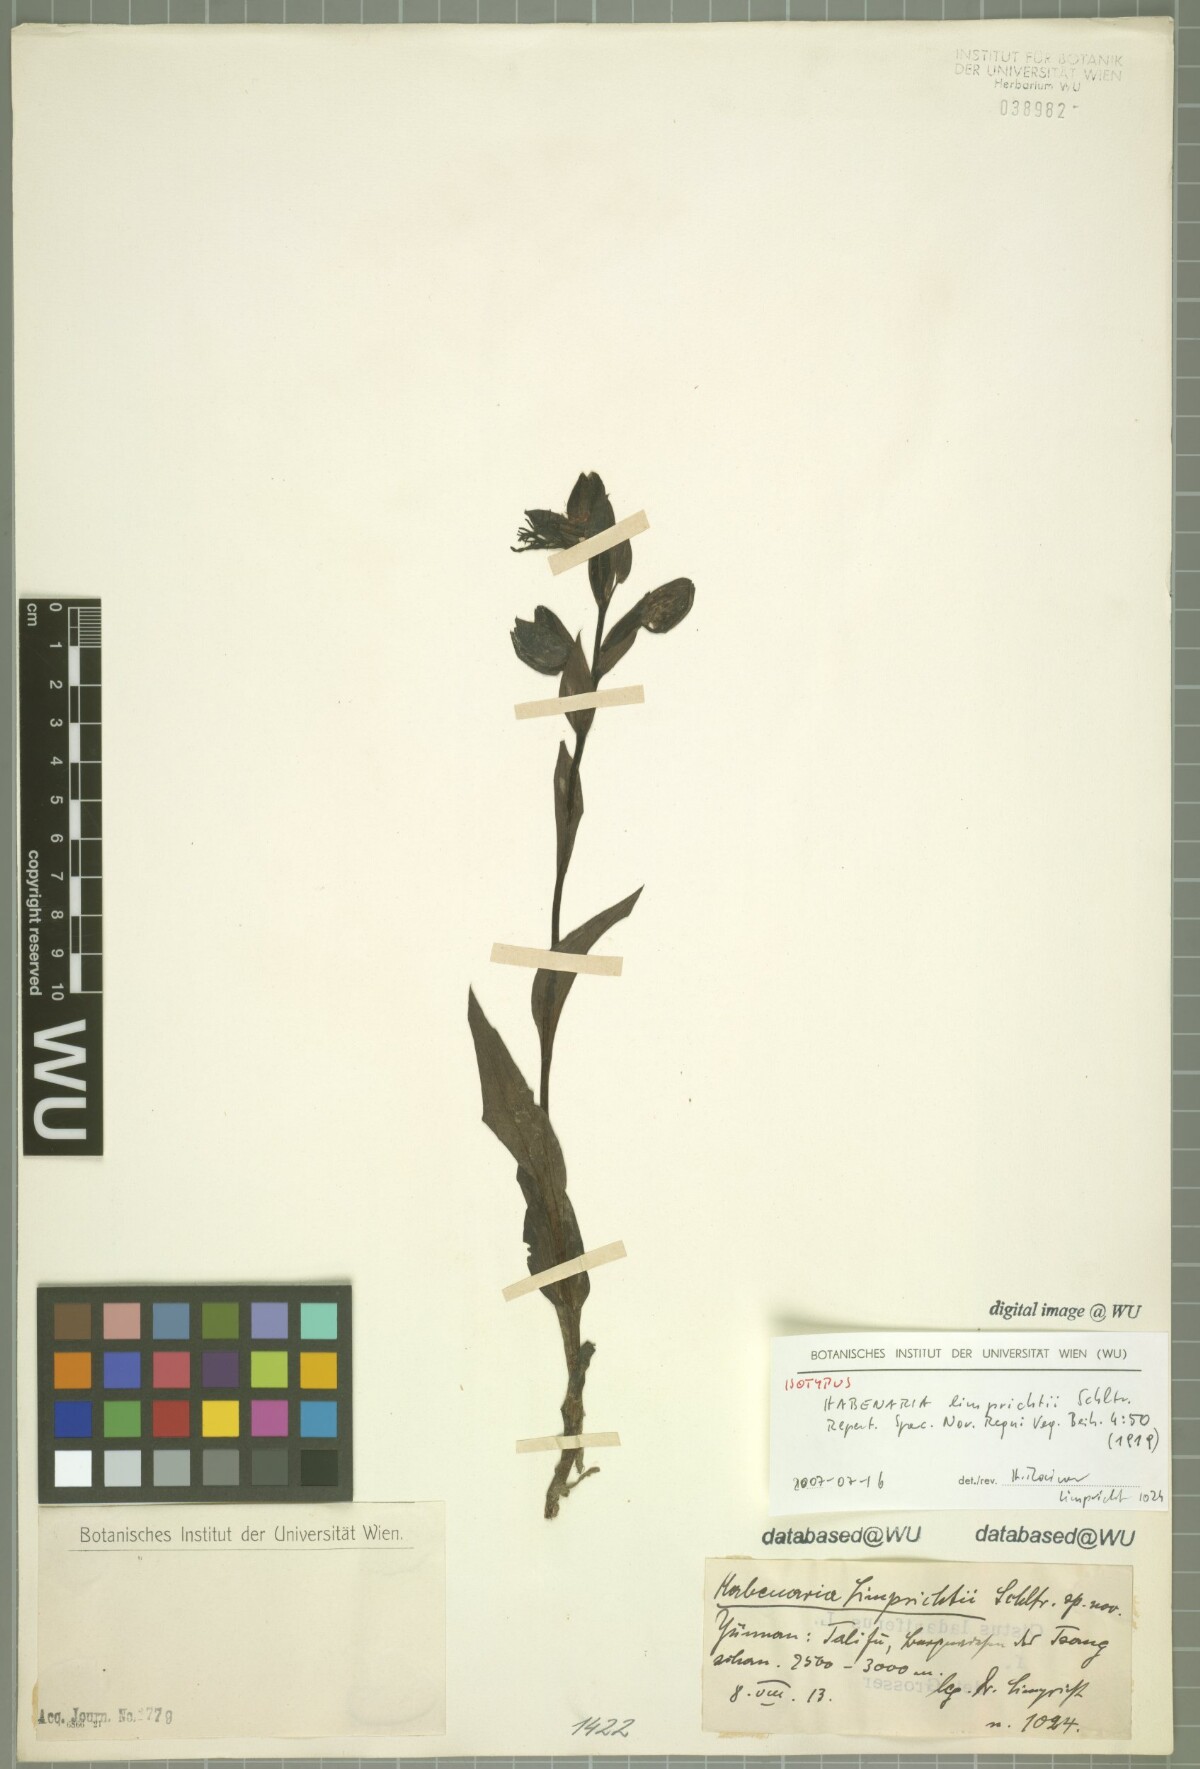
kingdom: Plantae
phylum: Tracheophyta
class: Liliopsida
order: Asparagales
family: Orchidaceae
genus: Habenaria
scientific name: Habenaria limprichtii
